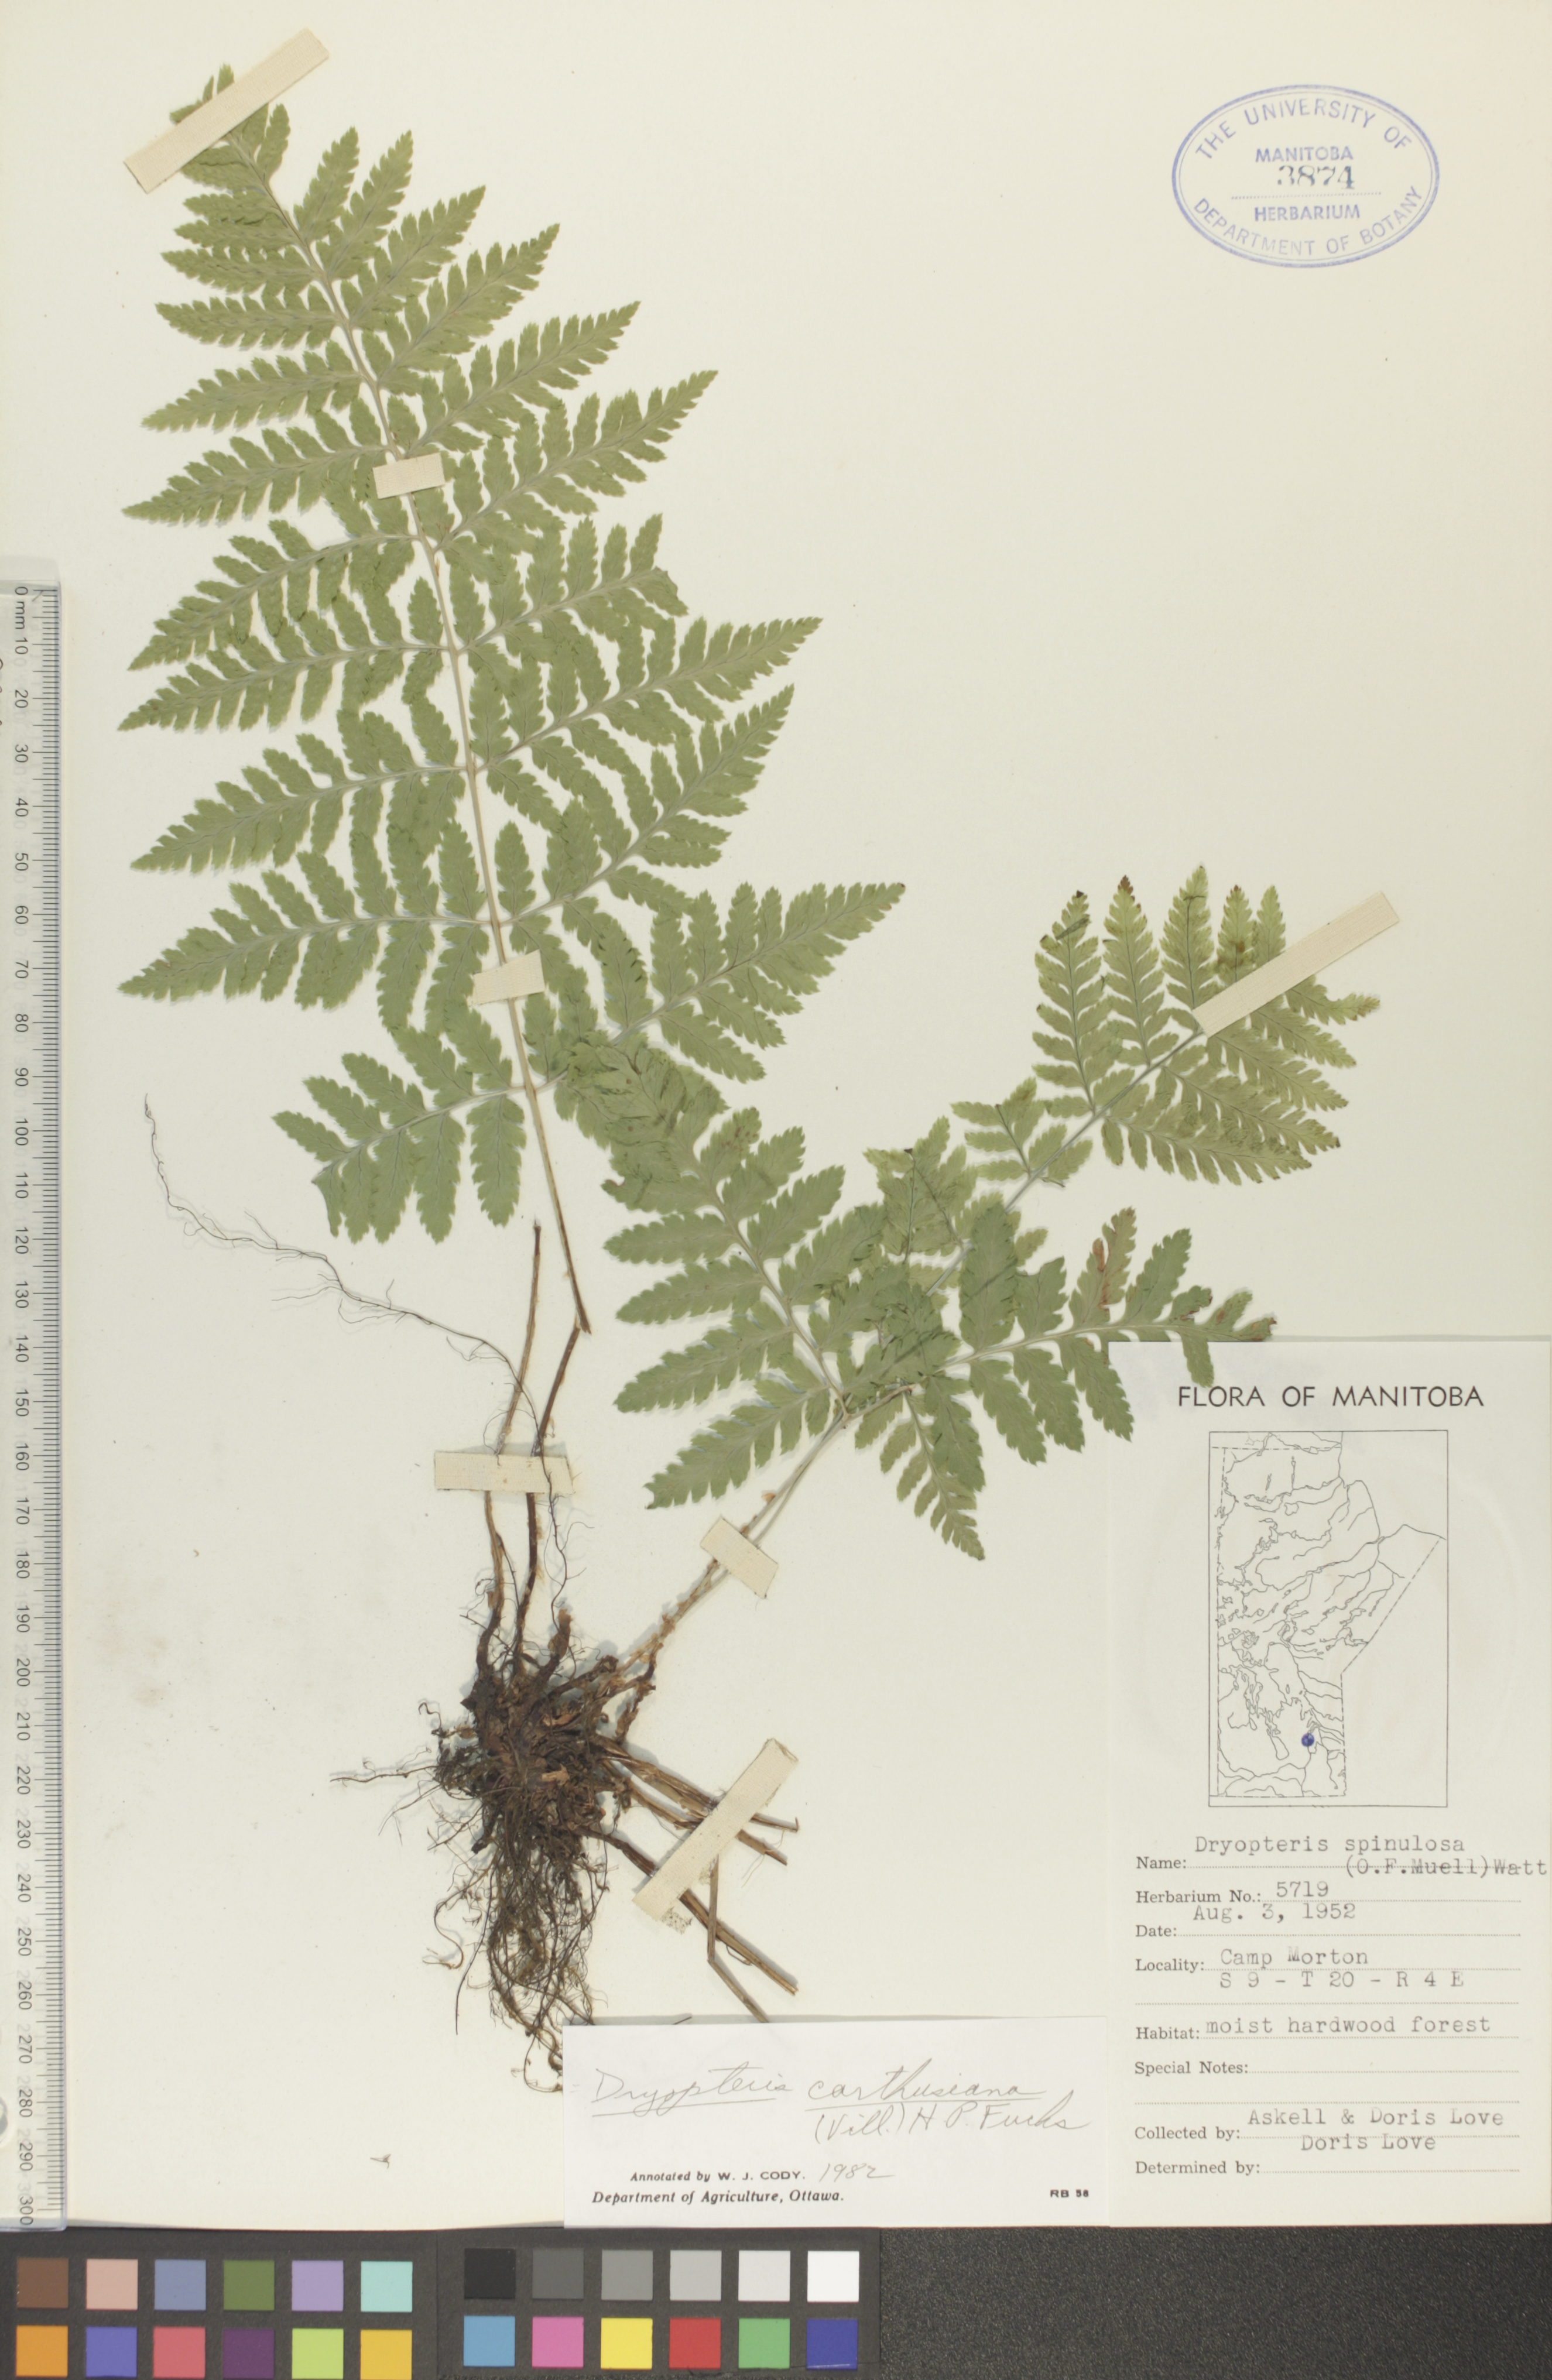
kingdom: Plantae
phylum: Tracheophyta
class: Polypodiopsida
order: Polypodiales
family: Dryopteridaceae
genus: Dryopteris
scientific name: Dryopteris carthusiana
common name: Narrow buckler-fern
